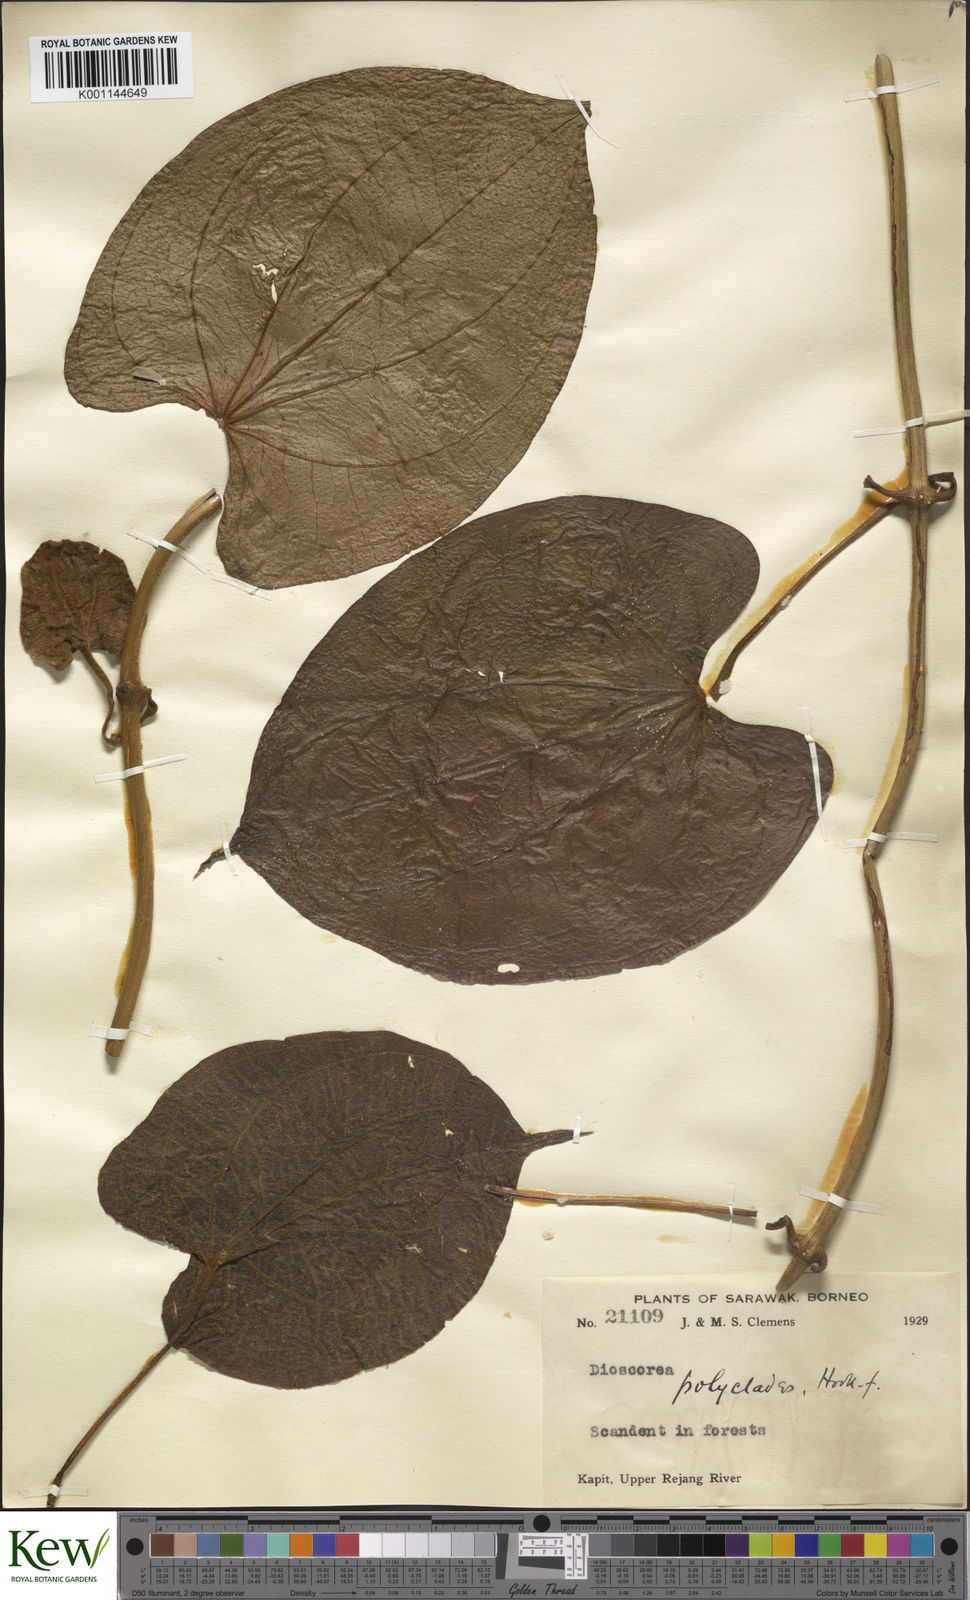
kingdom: Plantae
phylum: Tracheophyta
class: Liliopsida
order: Dioscoreales
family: Dioscoreaceae
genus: Dioscorea
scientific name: Dioscorea polyclados
